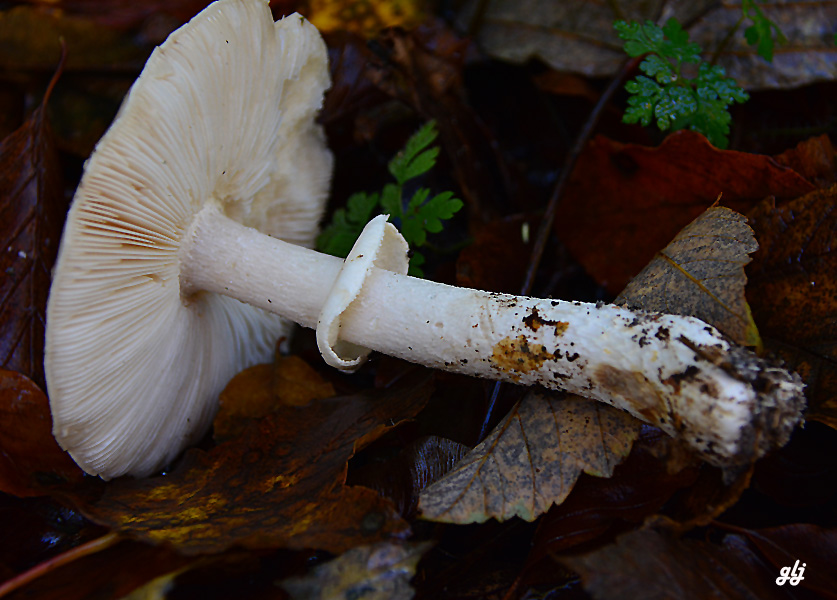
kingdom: Fungi
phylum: Basidiomycota
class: Agaricomycetes
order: Agaricales
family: Amanitaceae
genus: Limacellopsis
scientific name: Limacellopsis guttata
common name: tåre-snekkehat
